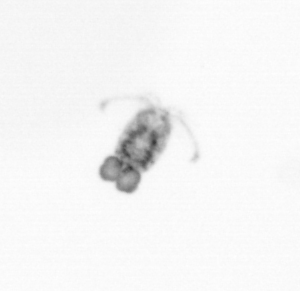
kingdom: Animalia
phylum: Arthropoda
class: Copepoda
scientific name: Copepoda
